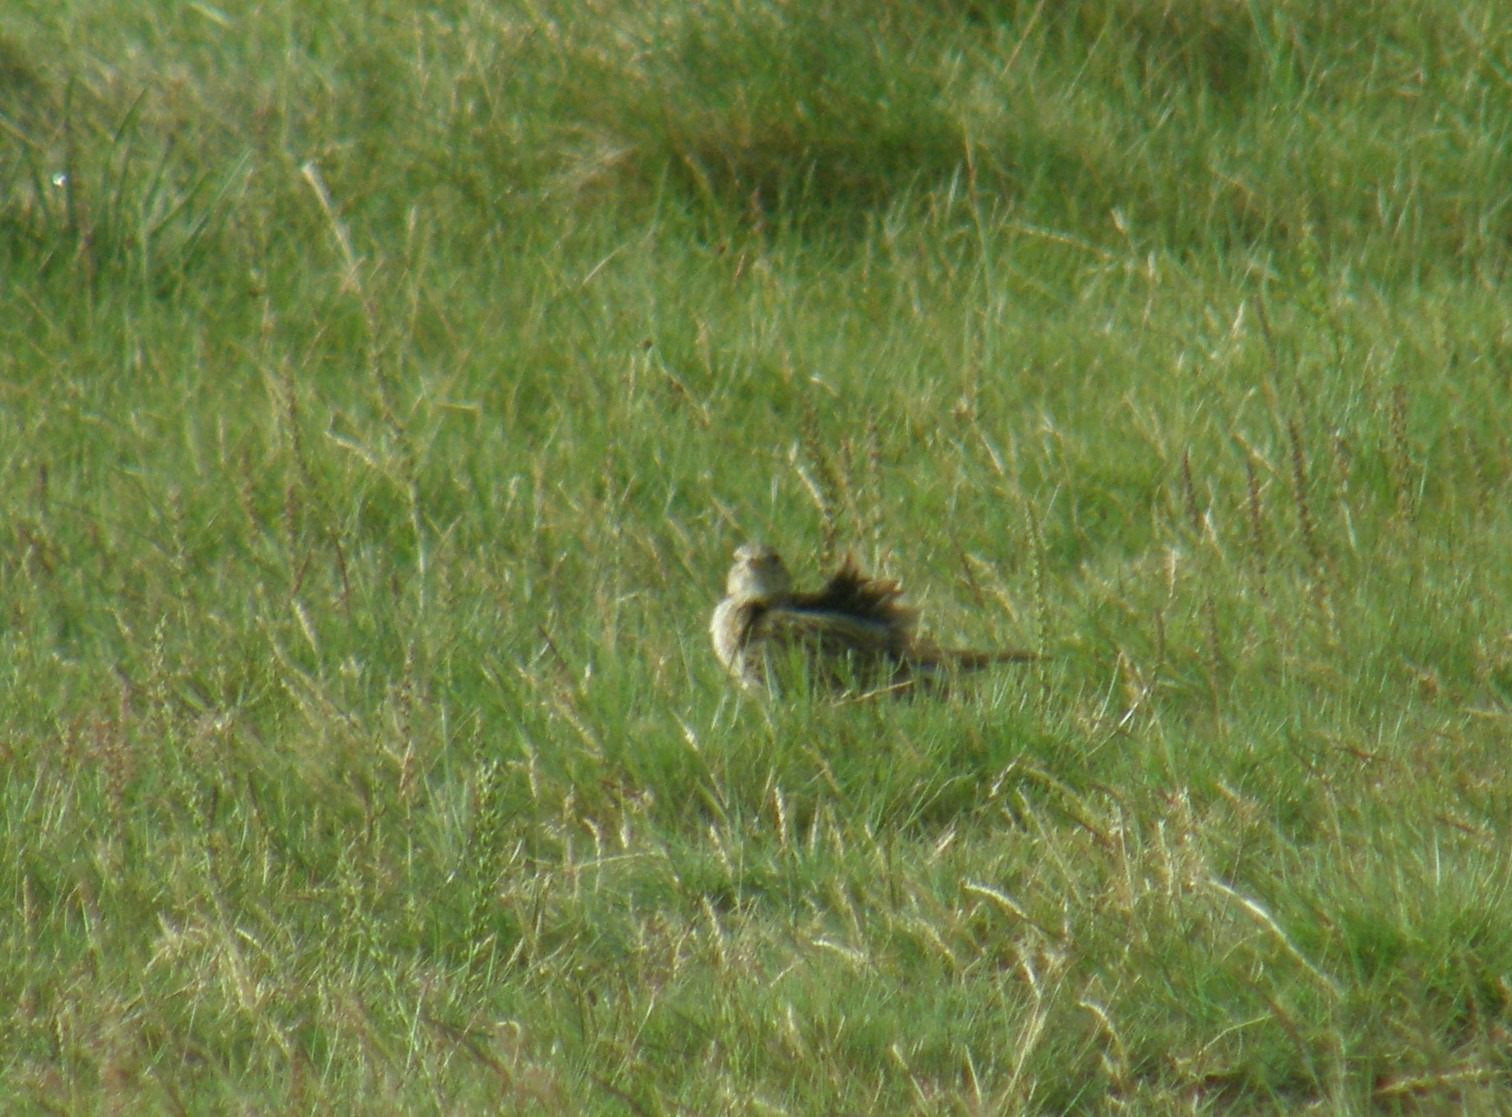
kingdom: Animalia
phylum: Chordata
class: Aves
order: Passeriformes
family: Alaudidae
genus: Alauda
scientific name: Alauda arvensis
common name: Sanglærke
